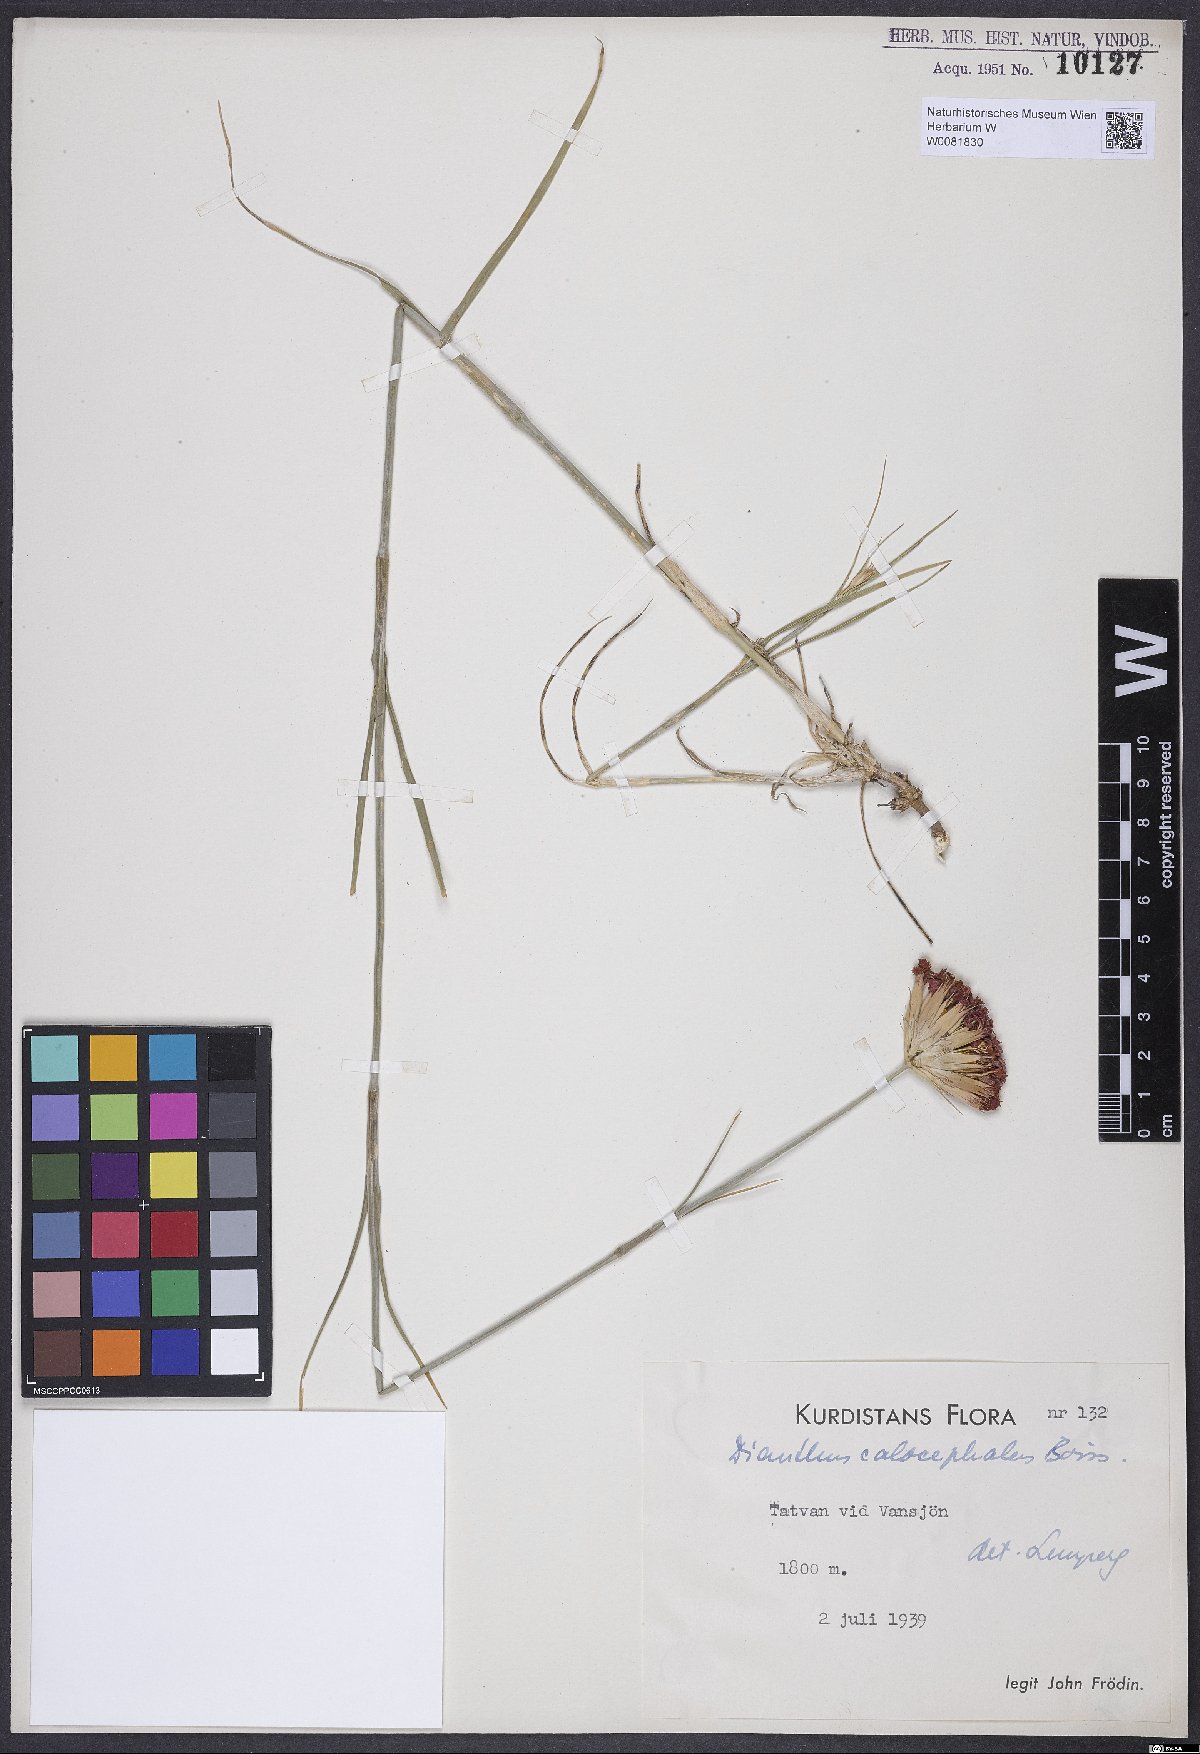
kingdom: Plantae
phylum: Tracheophyta
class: Magnoliopsida
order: Caryophyllales
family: Caryophyllaceae
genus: Dianthus
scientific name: Dianthus cruentus
